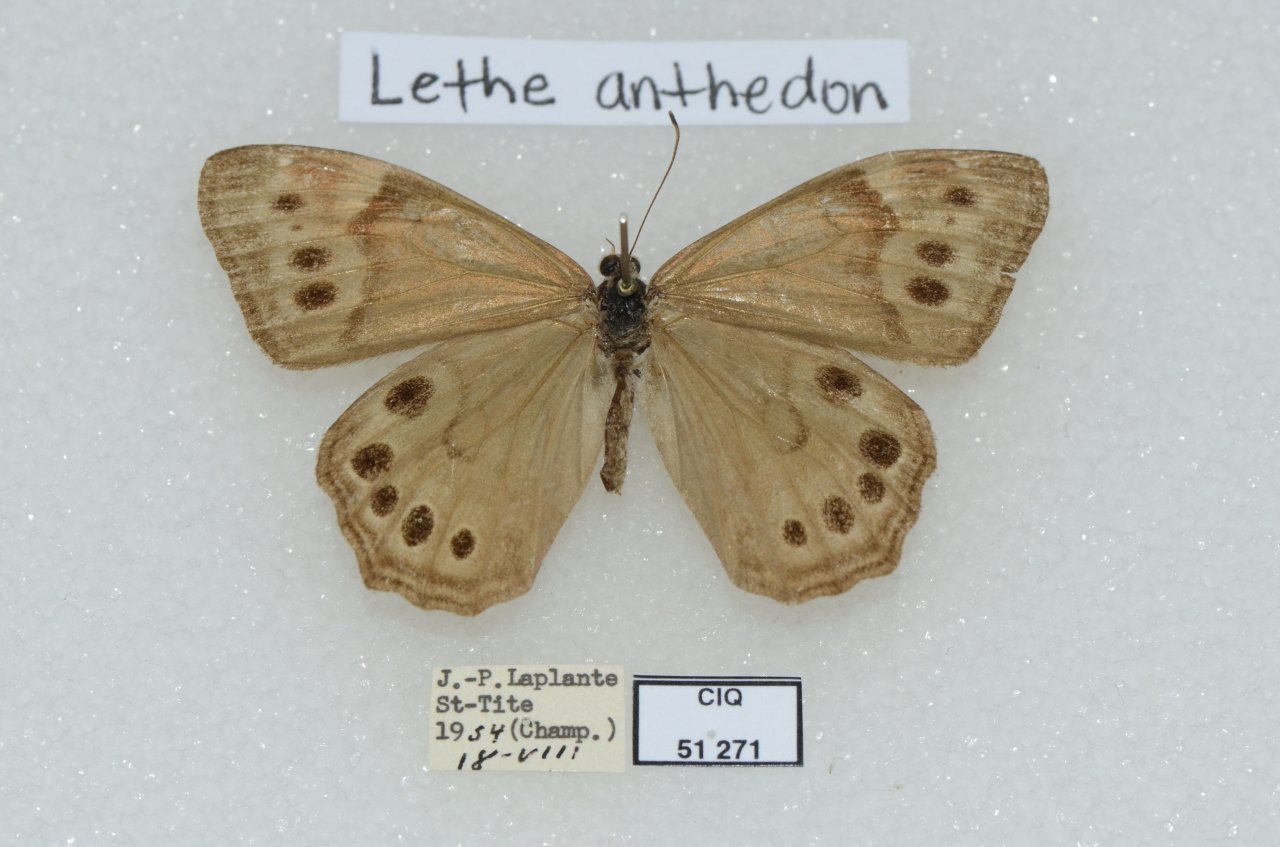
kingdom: Animalia
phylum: Arthropoda
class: Insecta
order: Lepidoptera
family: Nymphalidae
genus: Lethe
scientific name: Lethe anthedon
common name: Northern Pearly-Eye
